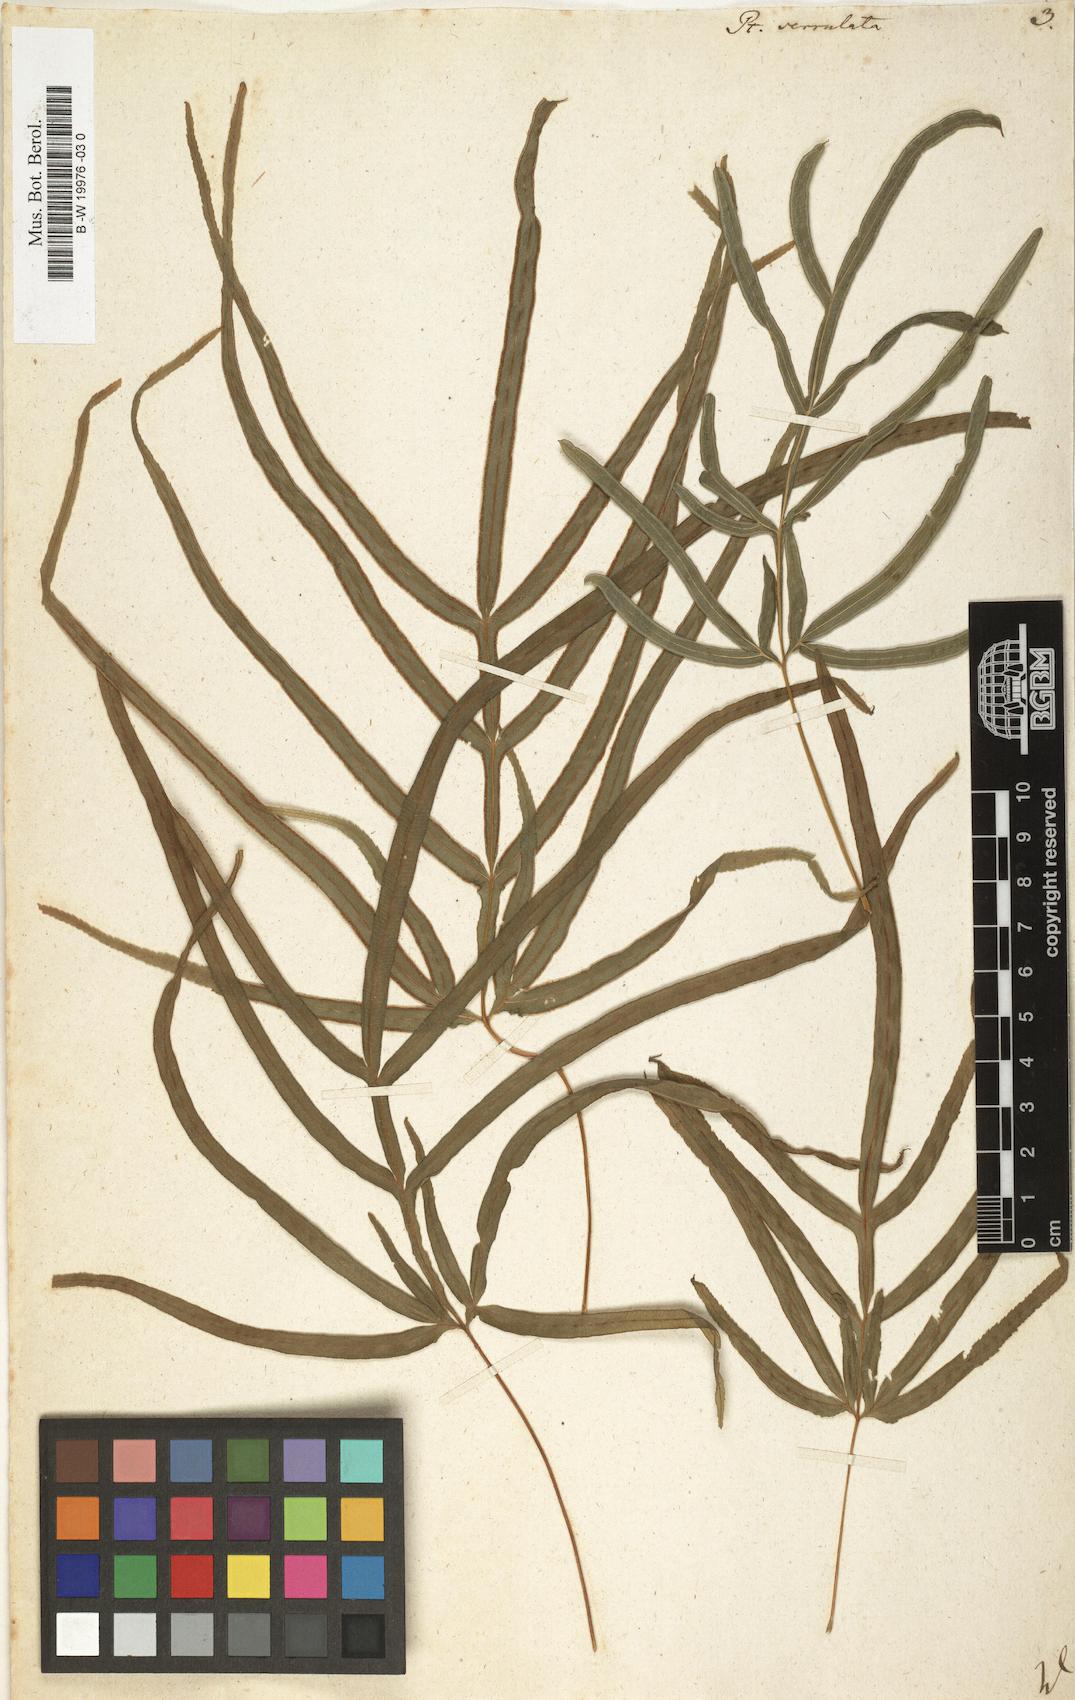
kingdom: Plantae
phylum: Tracheophyta
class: Polypodiopsida
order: Polypodiales
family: Pteridaceae
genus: Pteris
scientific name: Pteris
